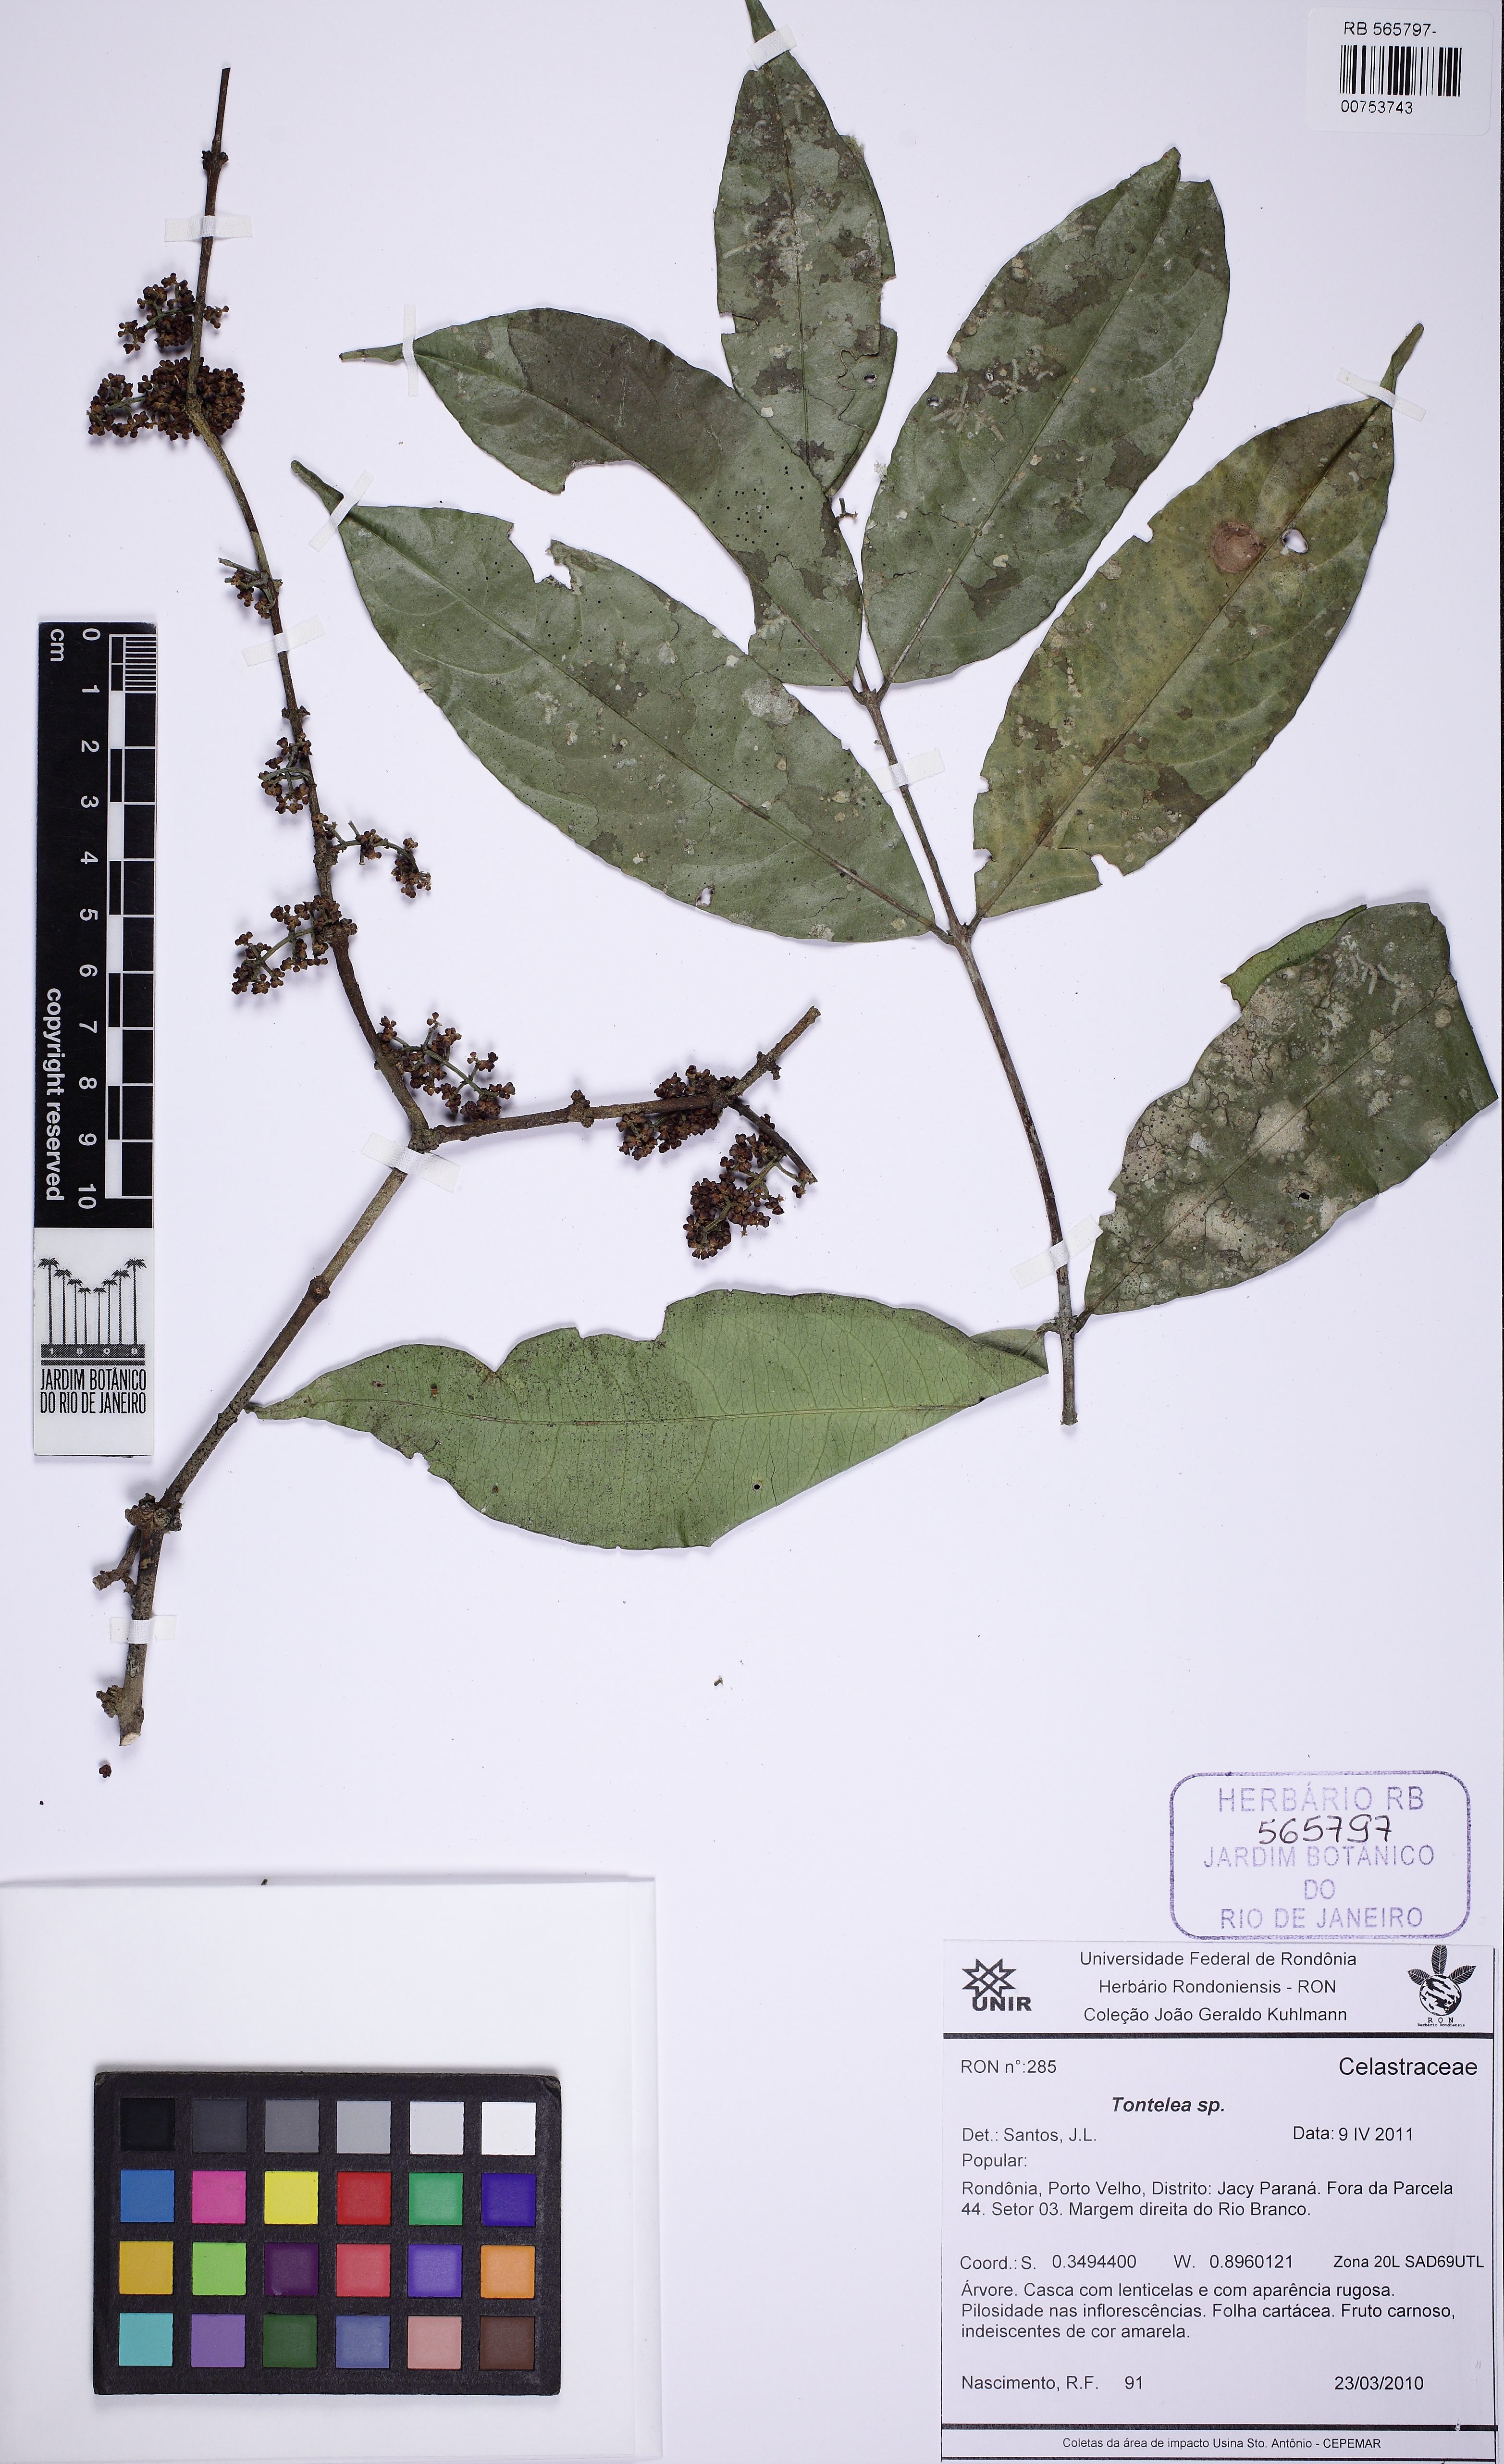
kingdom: Plantae
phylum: Tracheophyta
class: Magnoliopsida
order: Celastrales
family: Celastraceae
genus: Tontelea
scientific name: Tontelea
